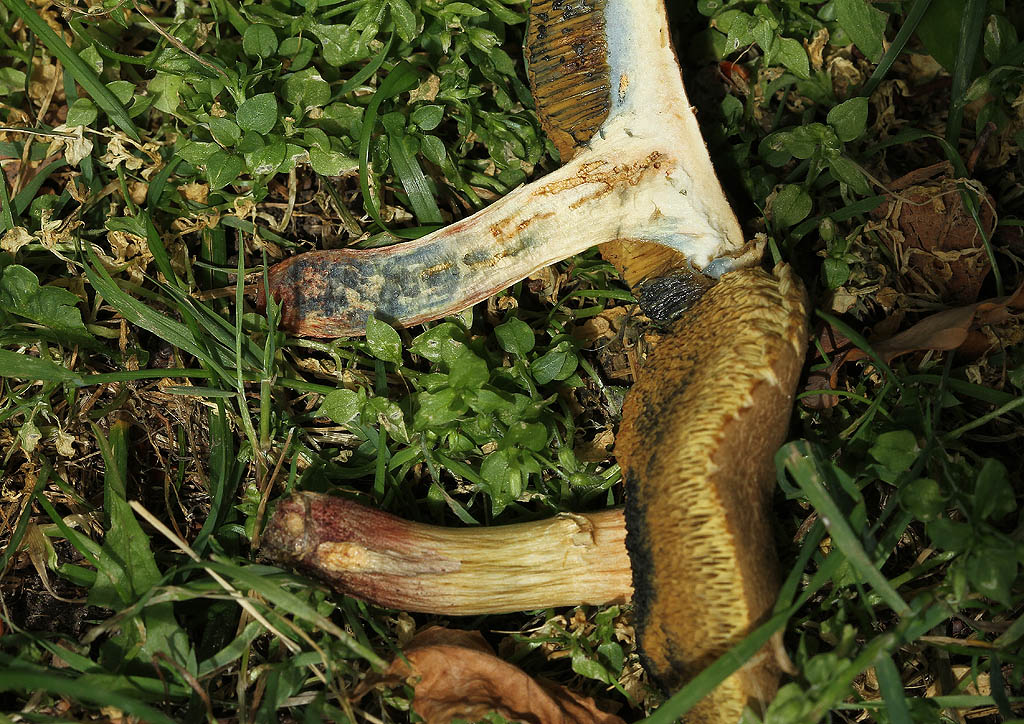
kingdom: Fungi
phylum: Basidiomycota
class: Agaricomycetes
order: Boletales
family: Boletaceae
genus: Xerocomellus
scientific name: Xerocomellus cisalpinus
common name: finsprukken rørhat
